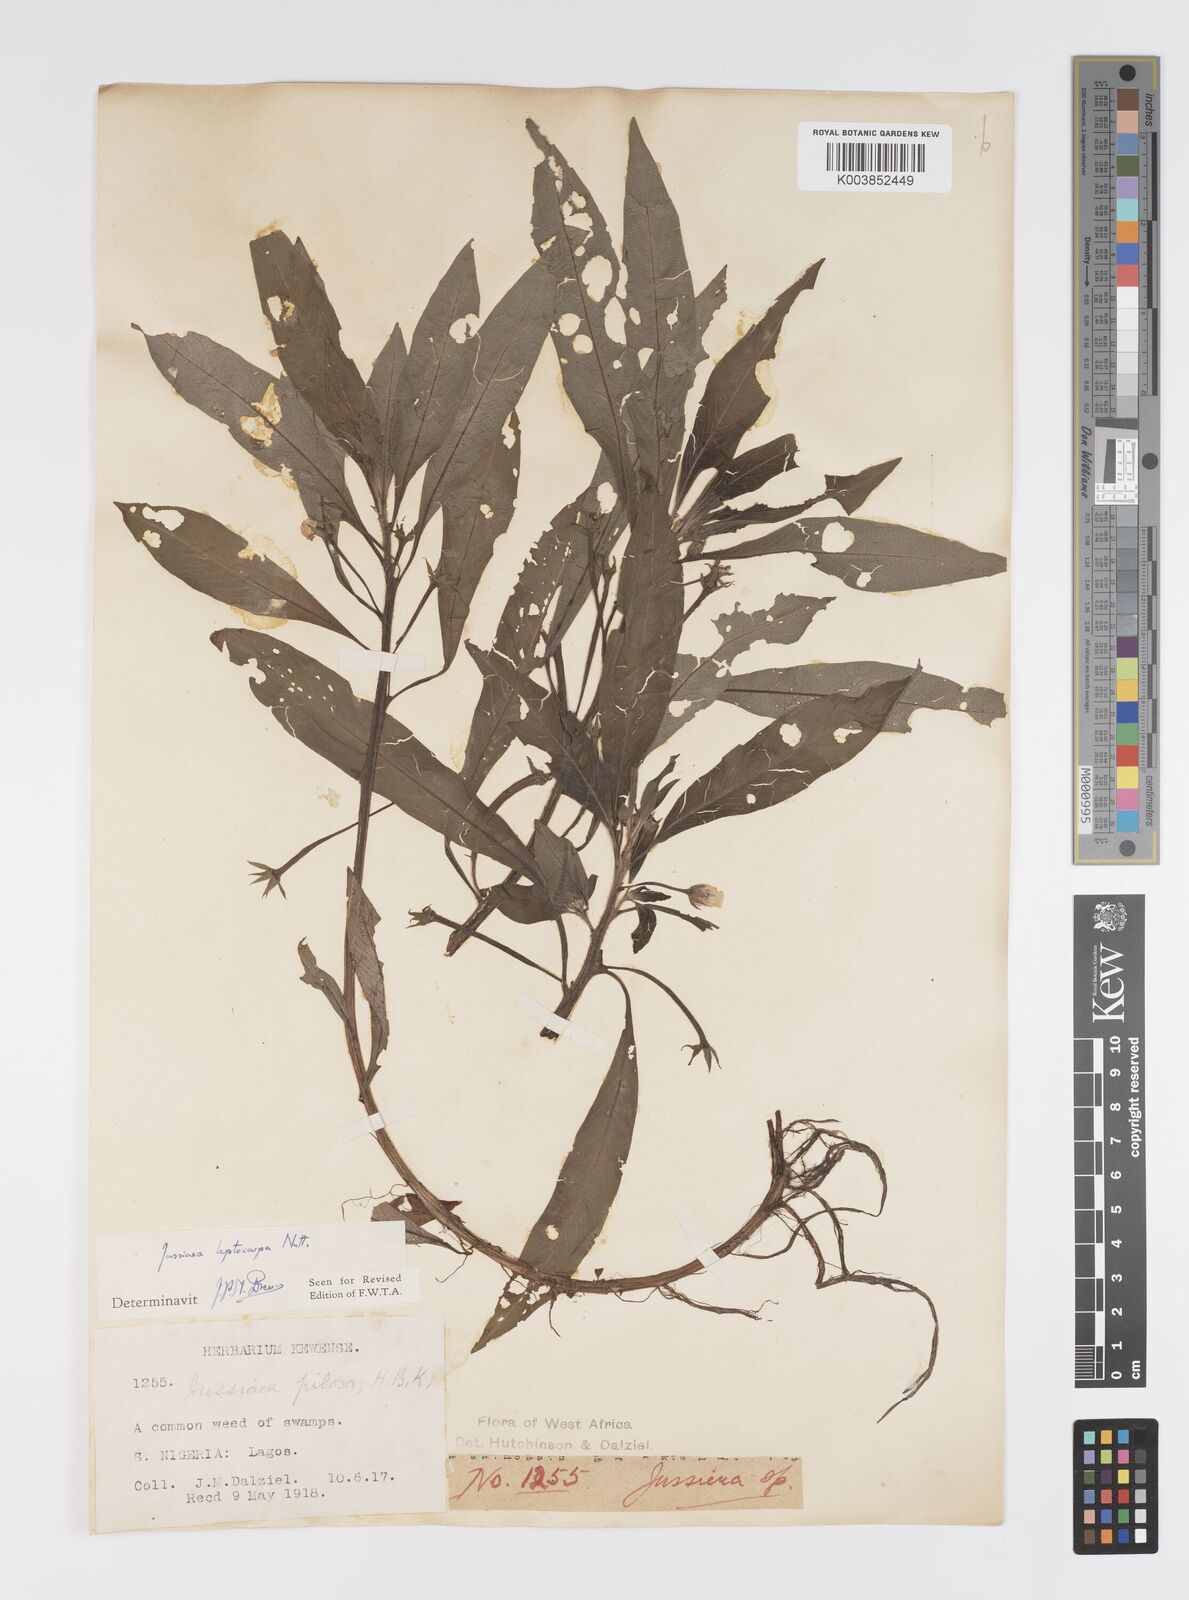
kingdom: Plantae
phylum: Tracheophyta
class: Magnoliopsida
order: Myrtales
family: Onagraceae
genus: Ludwigia
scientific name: Ludwigia leptocarpa
